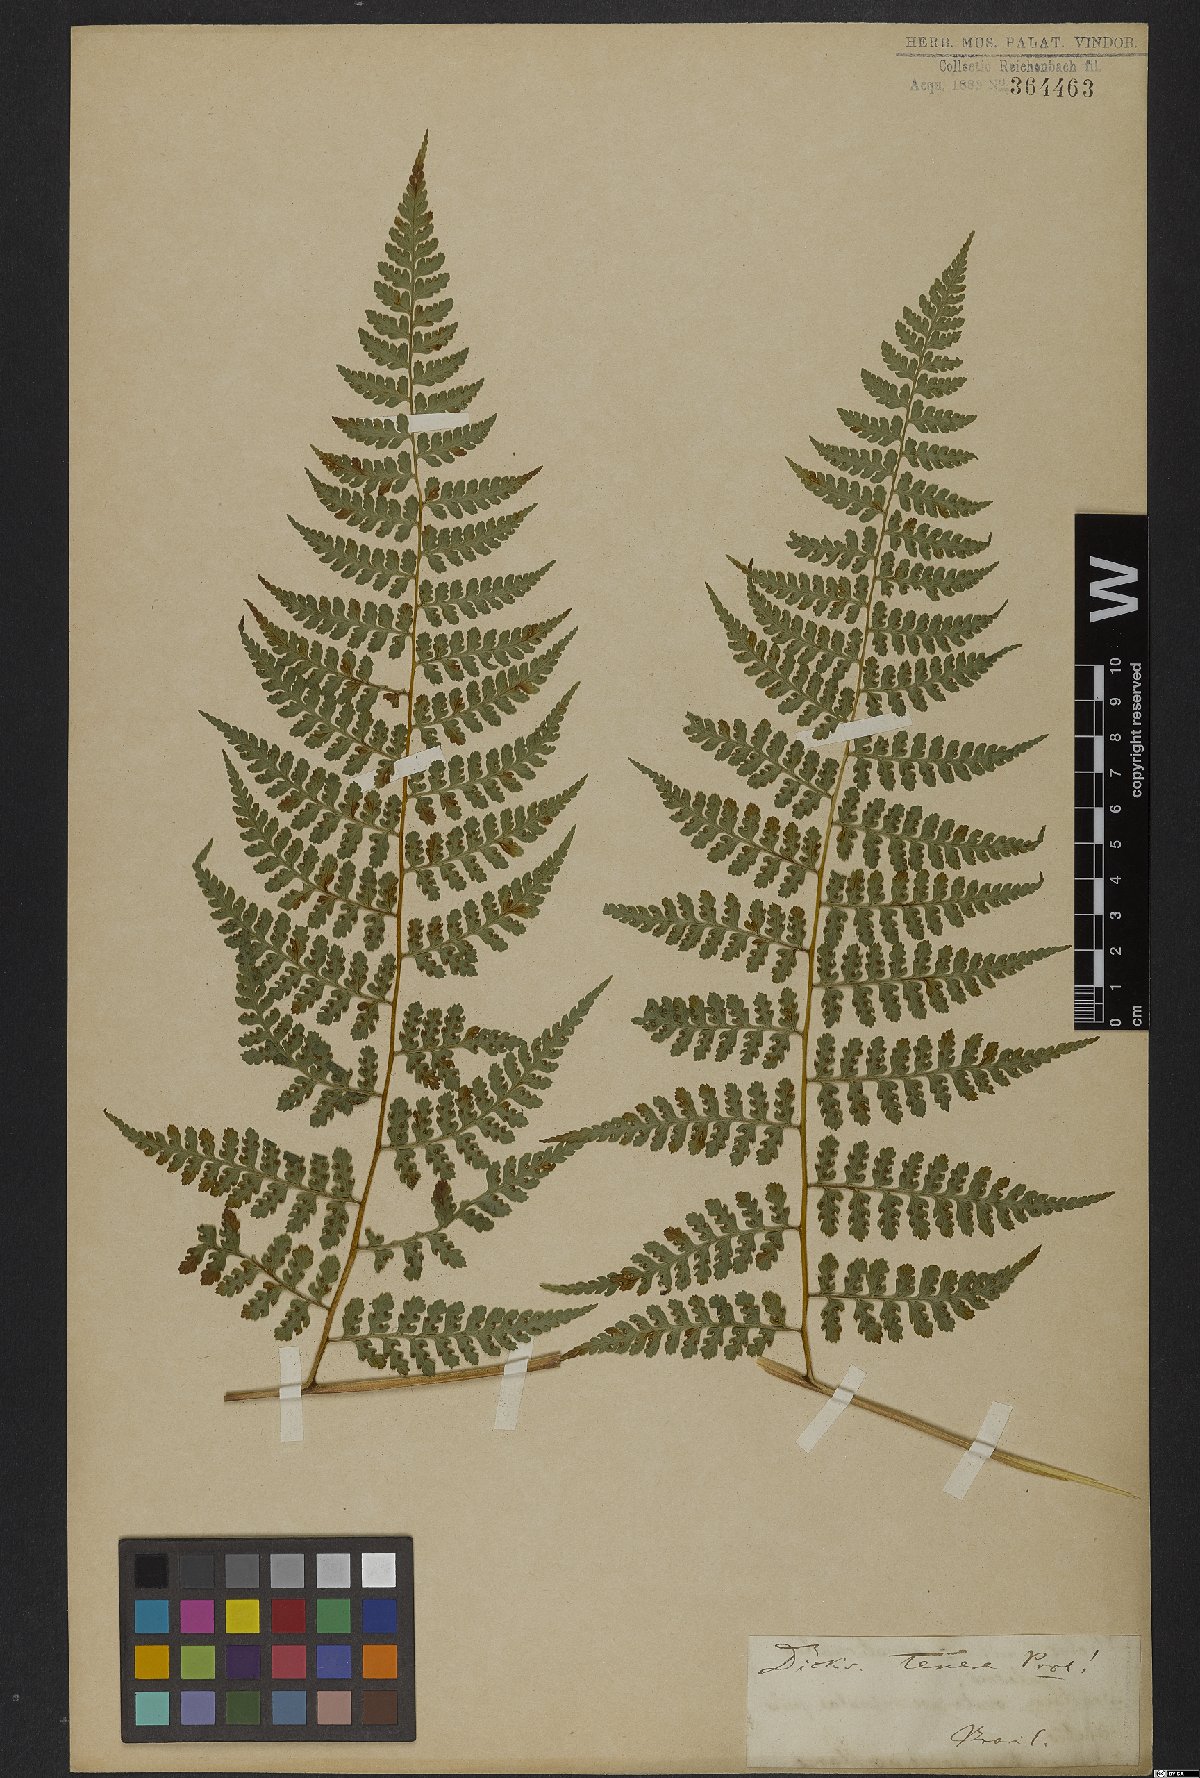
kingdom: Plantae
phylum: Tracheophyta
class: Polypodiopsida
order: Polypodiales
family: Dennstaedtiaceae
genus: Mucura
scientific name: Mucura globulifera
